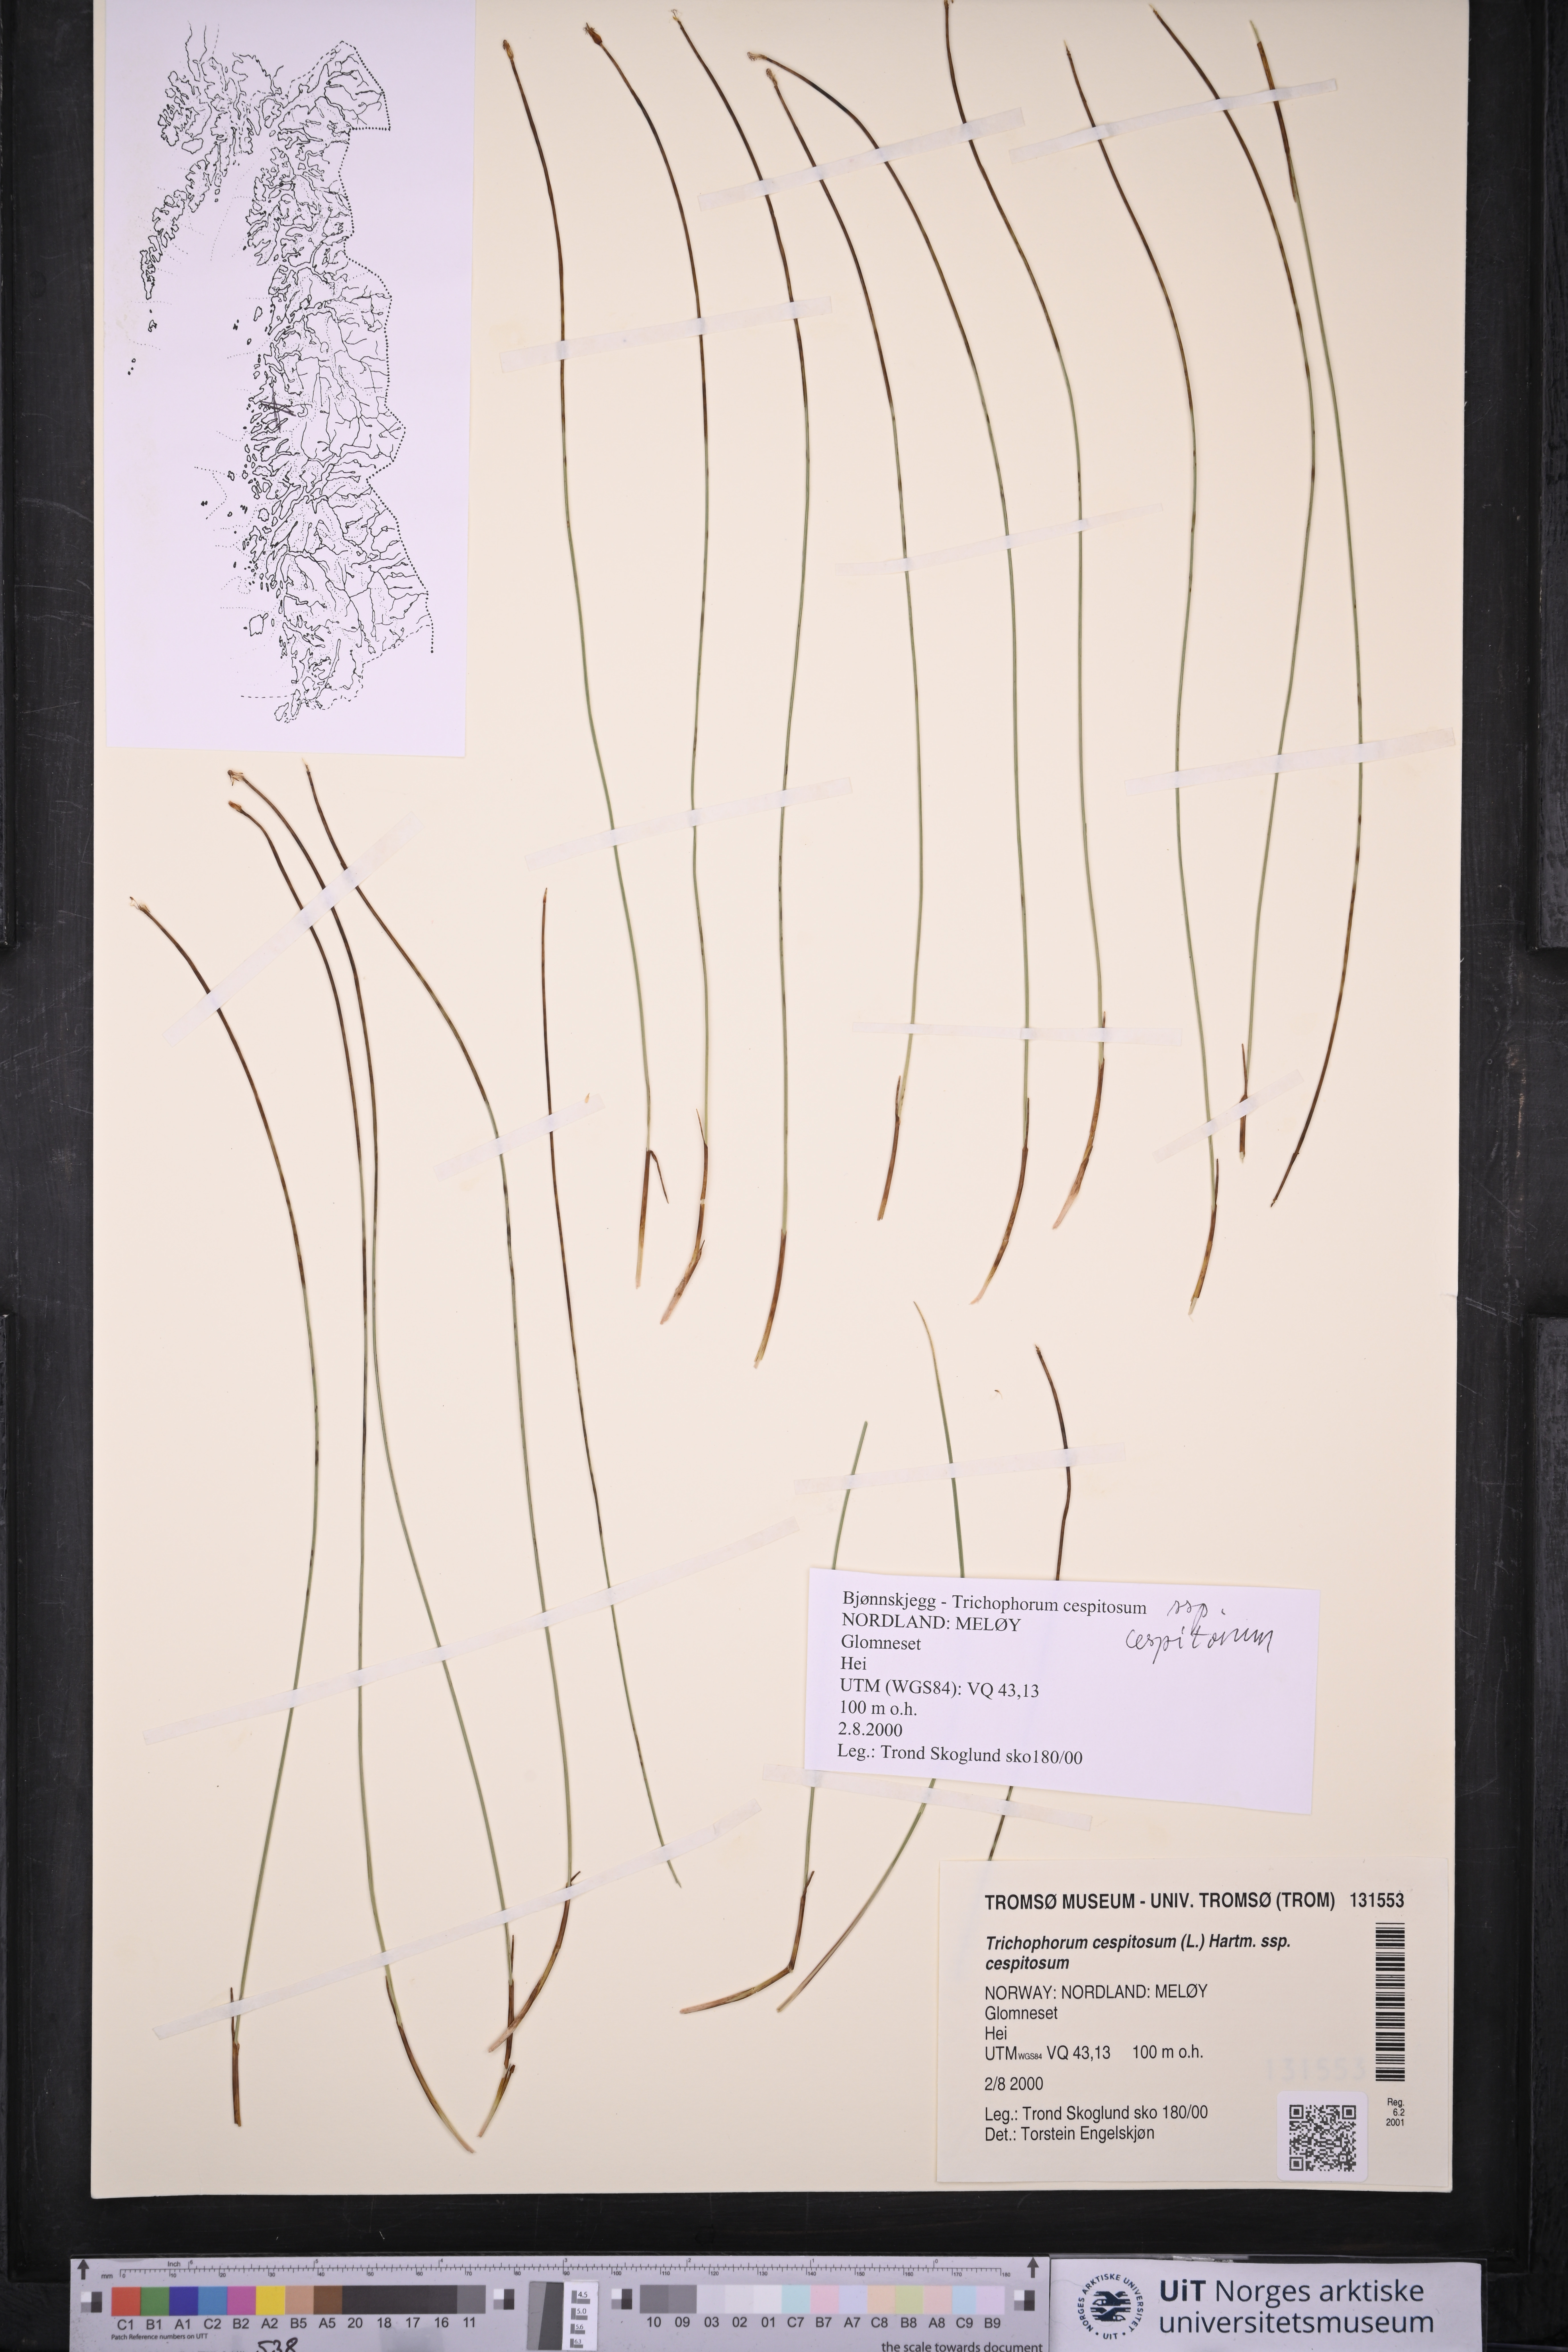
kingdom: Plantae
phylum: Tracheophyta
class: Liliopsida
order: Poales
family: Cyperaceae
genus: Trichophorum
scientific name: Trichophorum cespitosum
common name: Cespitose bulrush
